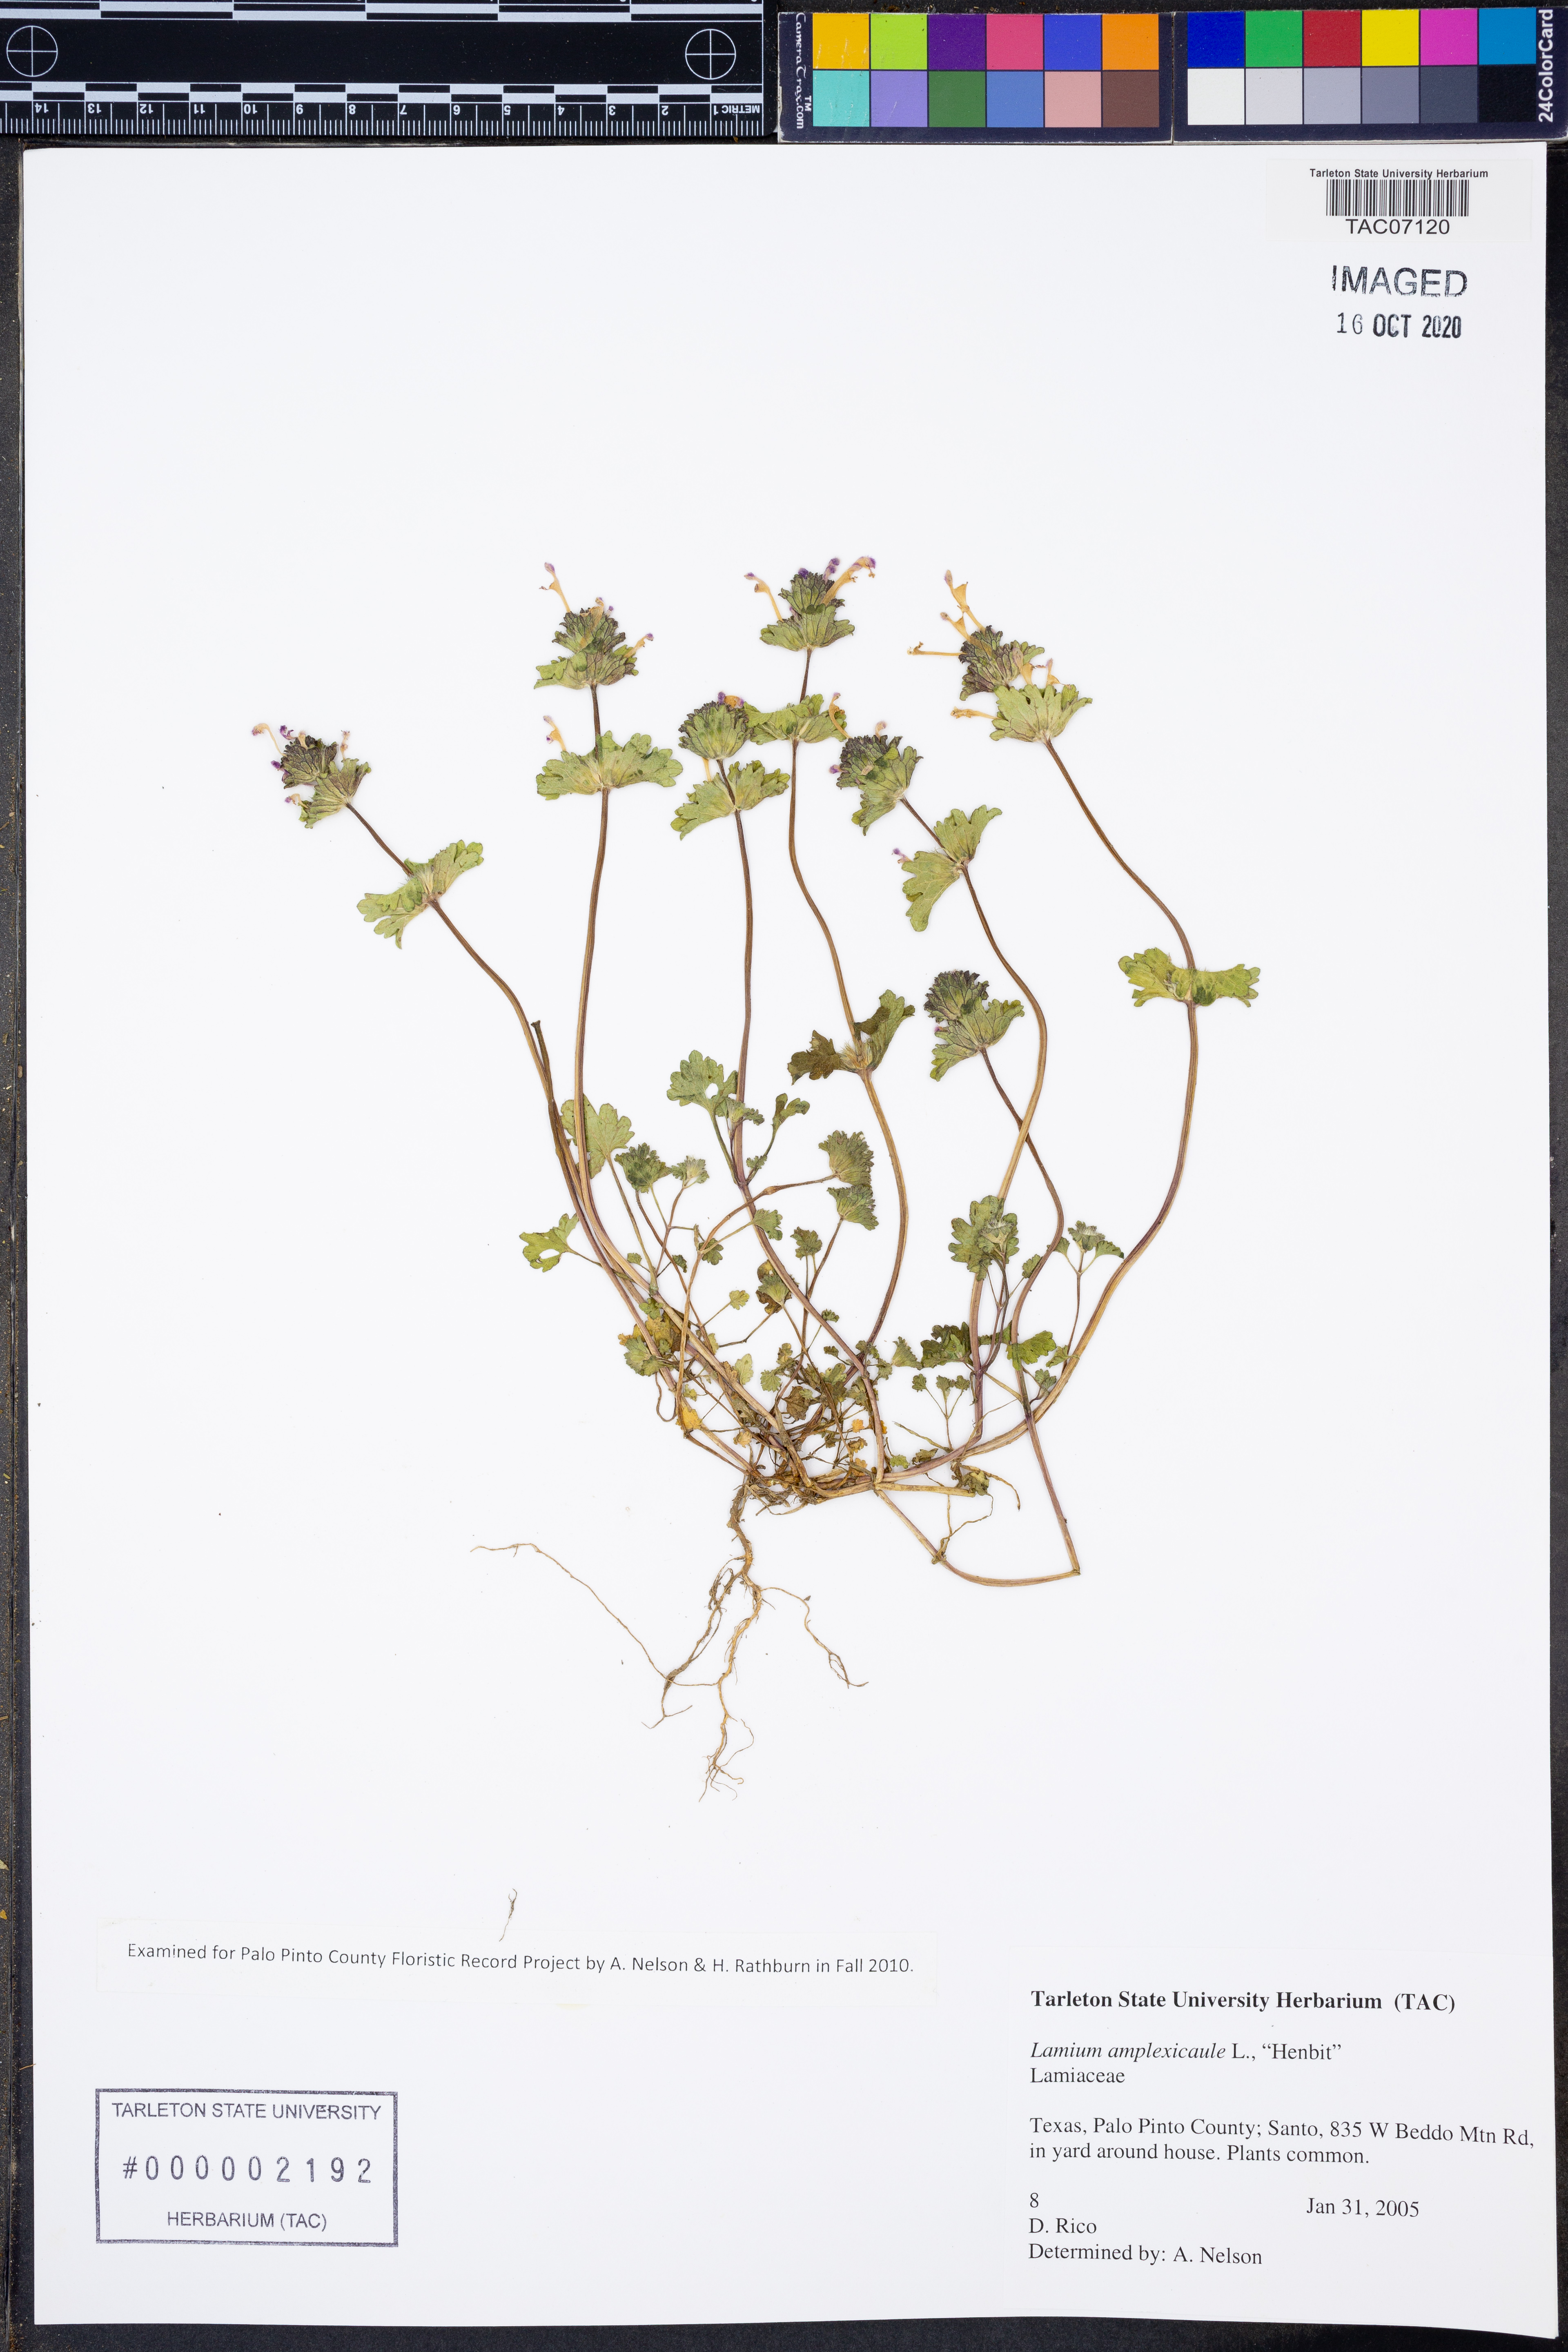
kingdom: Plantae
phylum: Tracheophyta
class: Magnoliopsida
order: Lamiales
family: Lamiaceae
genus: Lamium
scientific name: Lamium amplexicaule
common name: Henbit dead-nettle
